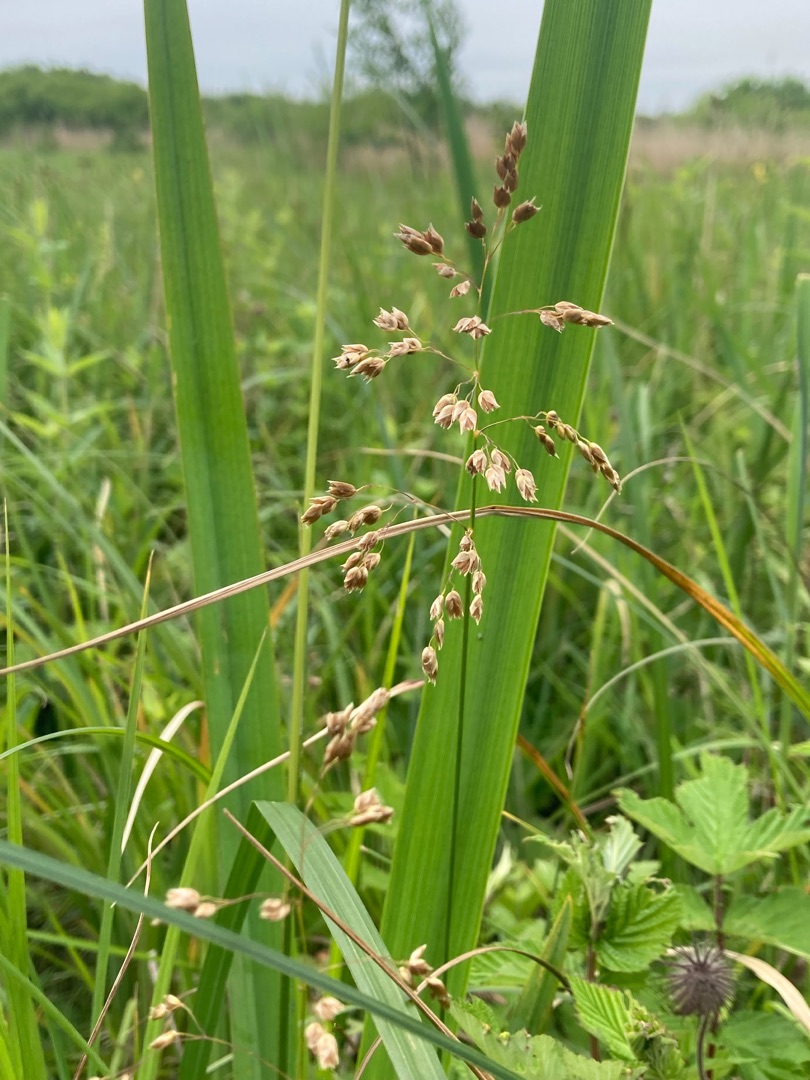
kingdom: Plantae
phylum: Tracheophyta
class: Liliopsida
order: Poales
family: Poaceae
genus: Anthoxanthum
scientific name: Anthoxanthum nitens
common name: Festgræs
